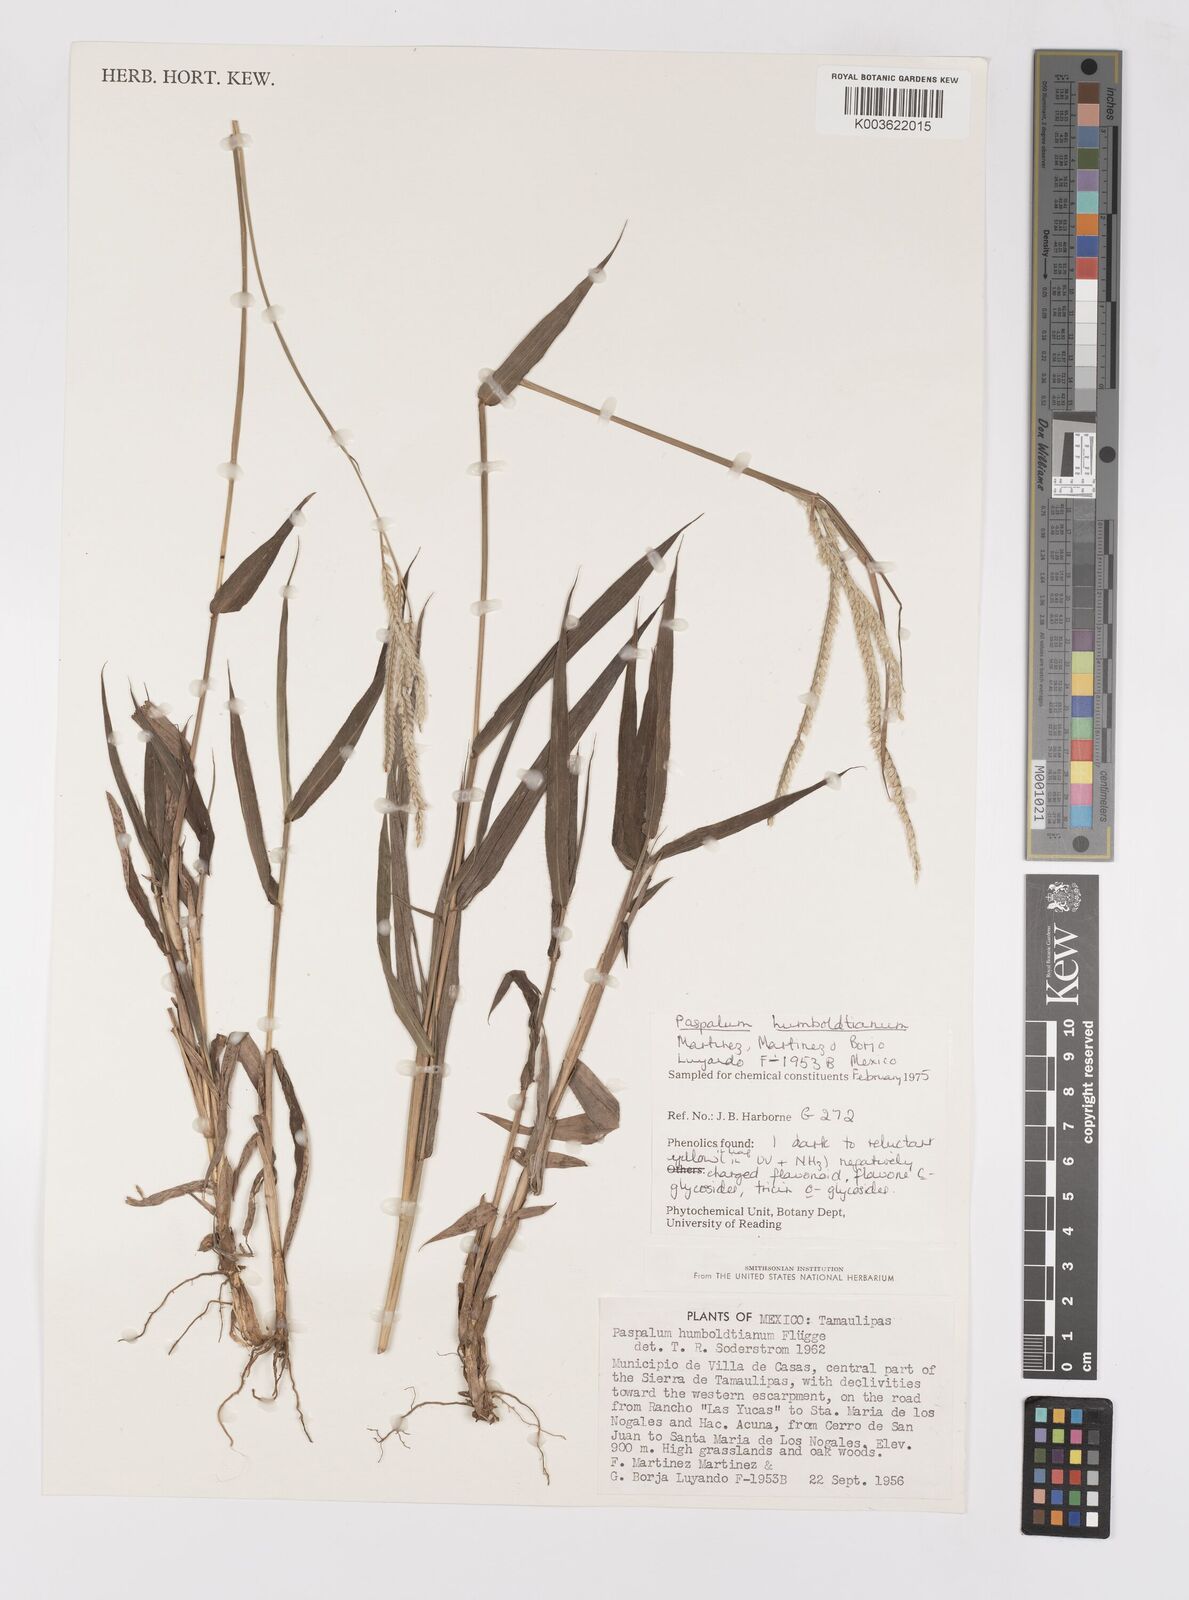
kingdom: Plantae
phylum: Tracheophyta
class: Liliopsida
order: Poales
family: Poaceae
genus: Paspalum
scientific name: Paspalum humboldtianum
